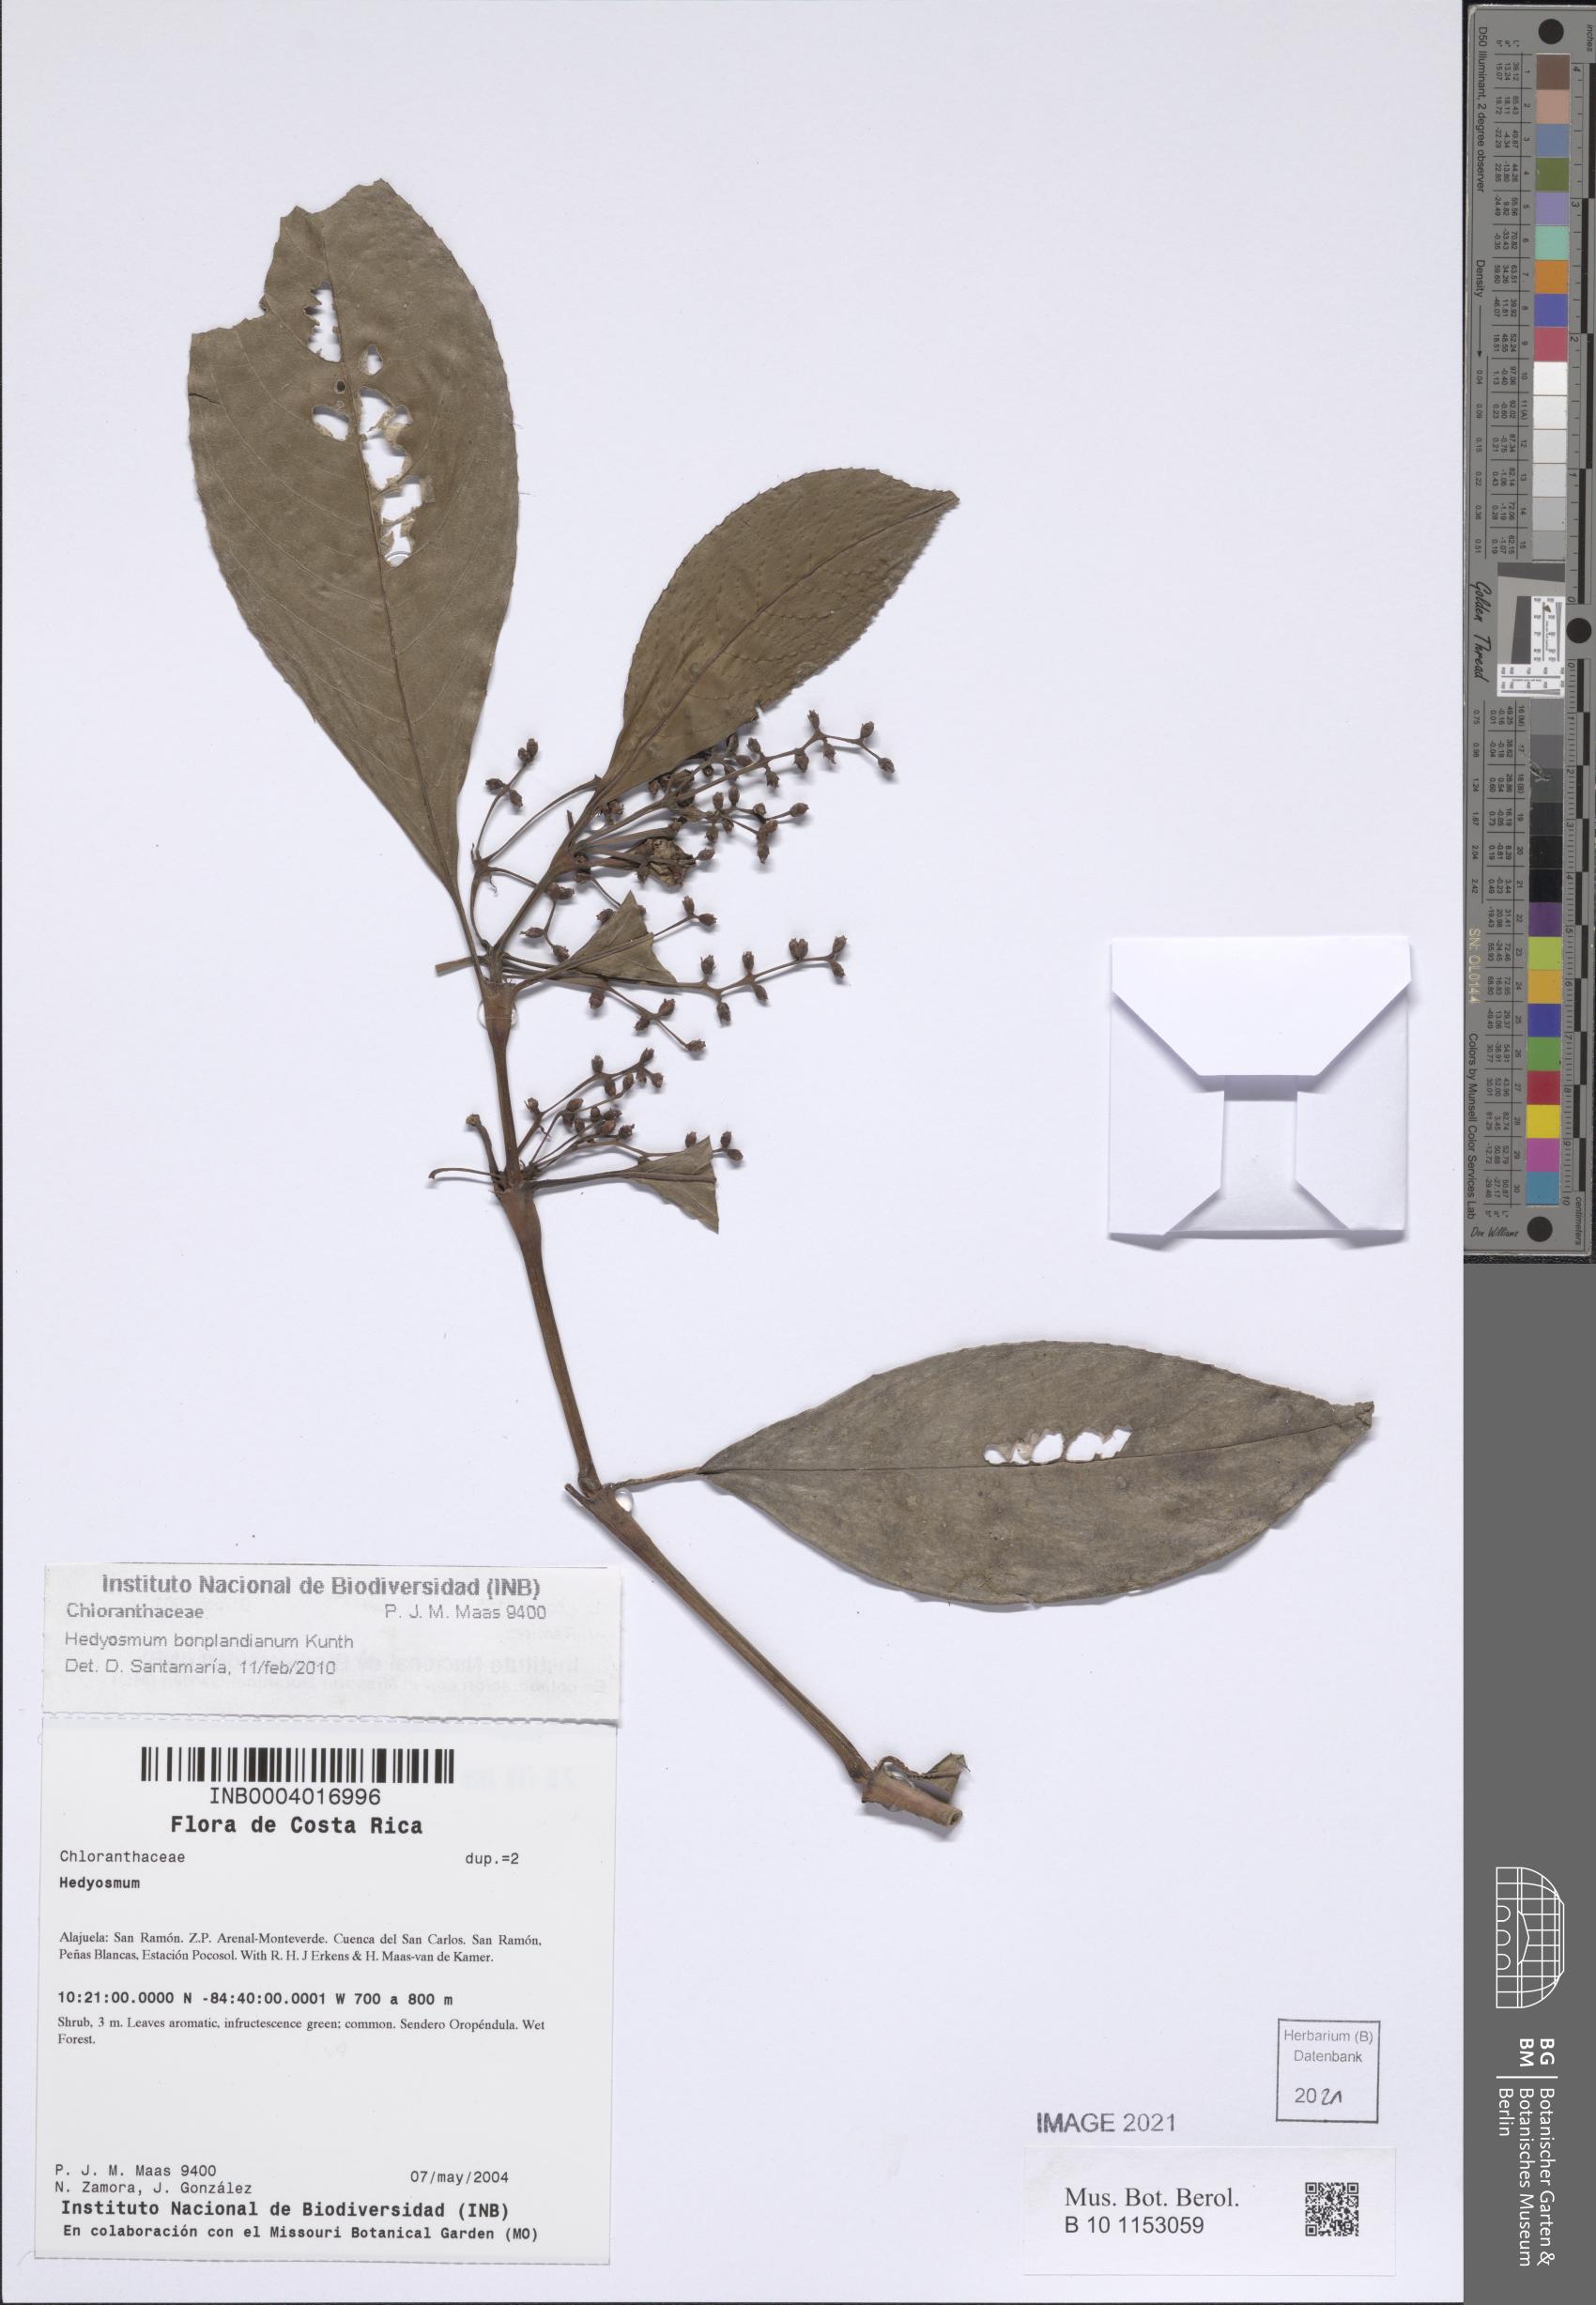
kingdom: Plantae
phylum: Tracheophyta
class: Magnoliopsida
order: Chloranthales
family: Chloranthaceae
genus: Hedyosmum
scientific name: Hedyosmum bonplandianum
